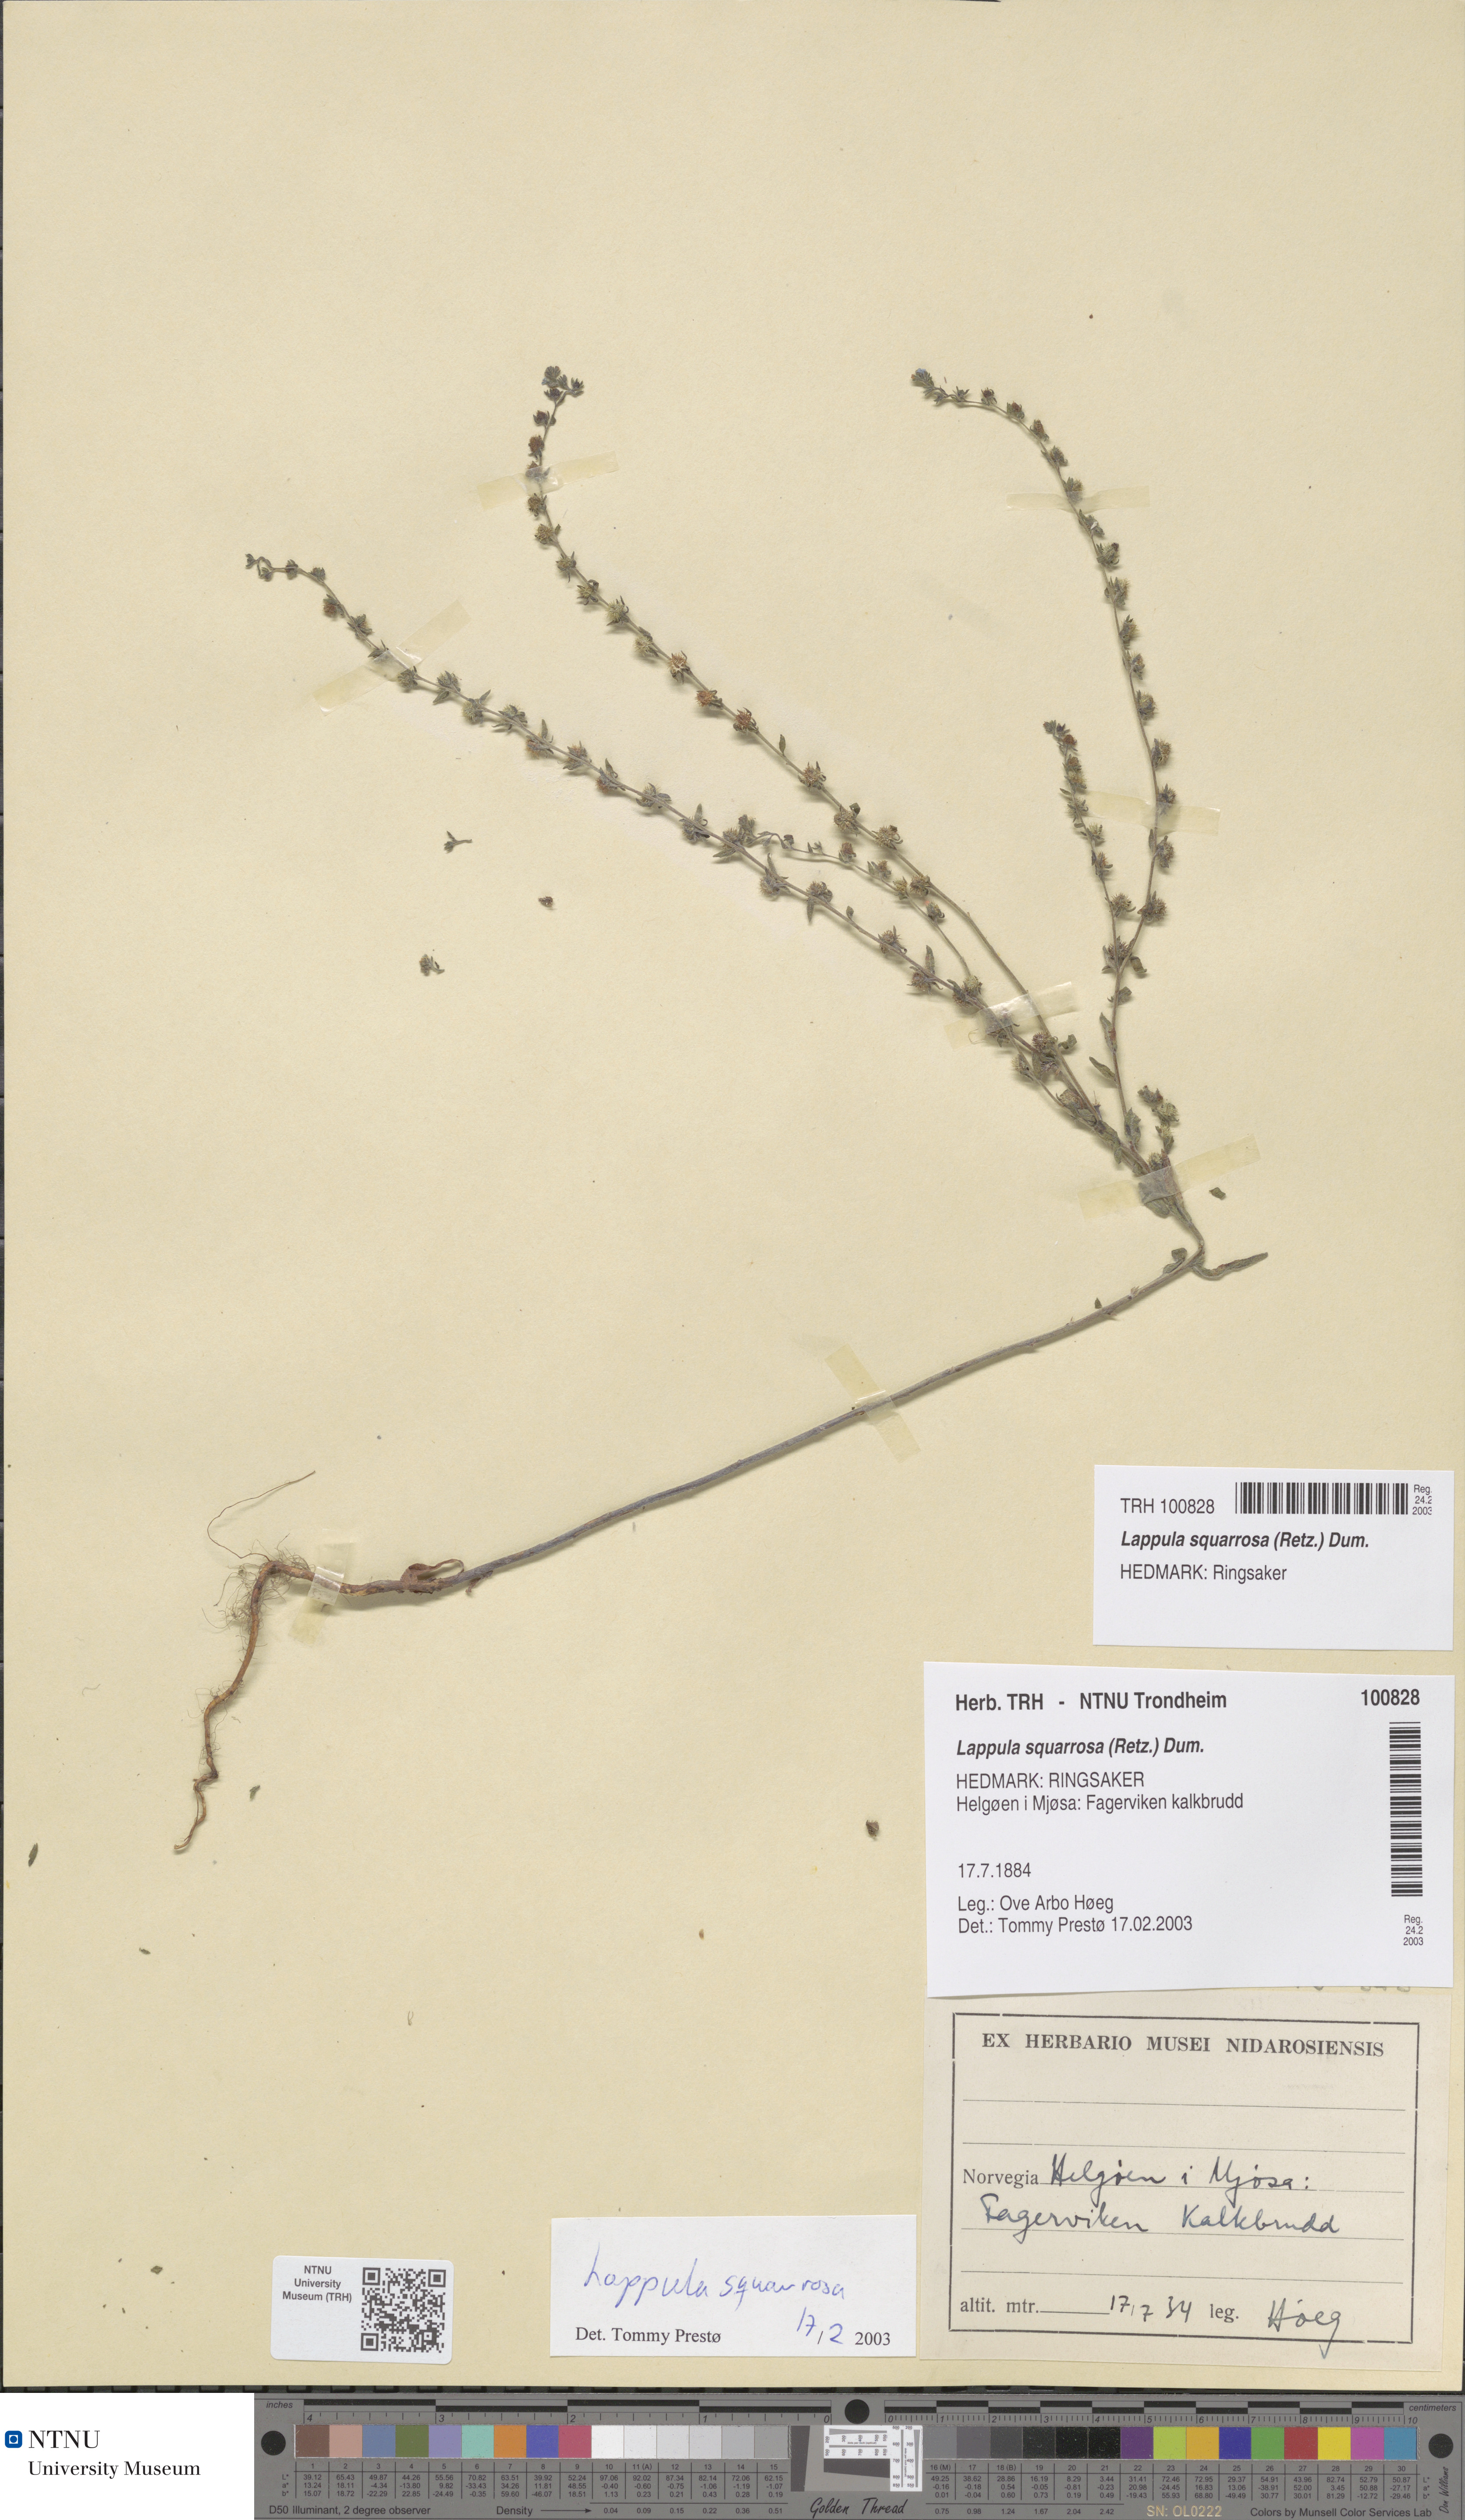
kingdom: Plantae
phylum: Tracheophyta
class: Magnoliopsida
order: Boraginales
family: Boraginaceae
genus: Lappula
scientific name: Lappula squarrosa
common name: European stickseed
